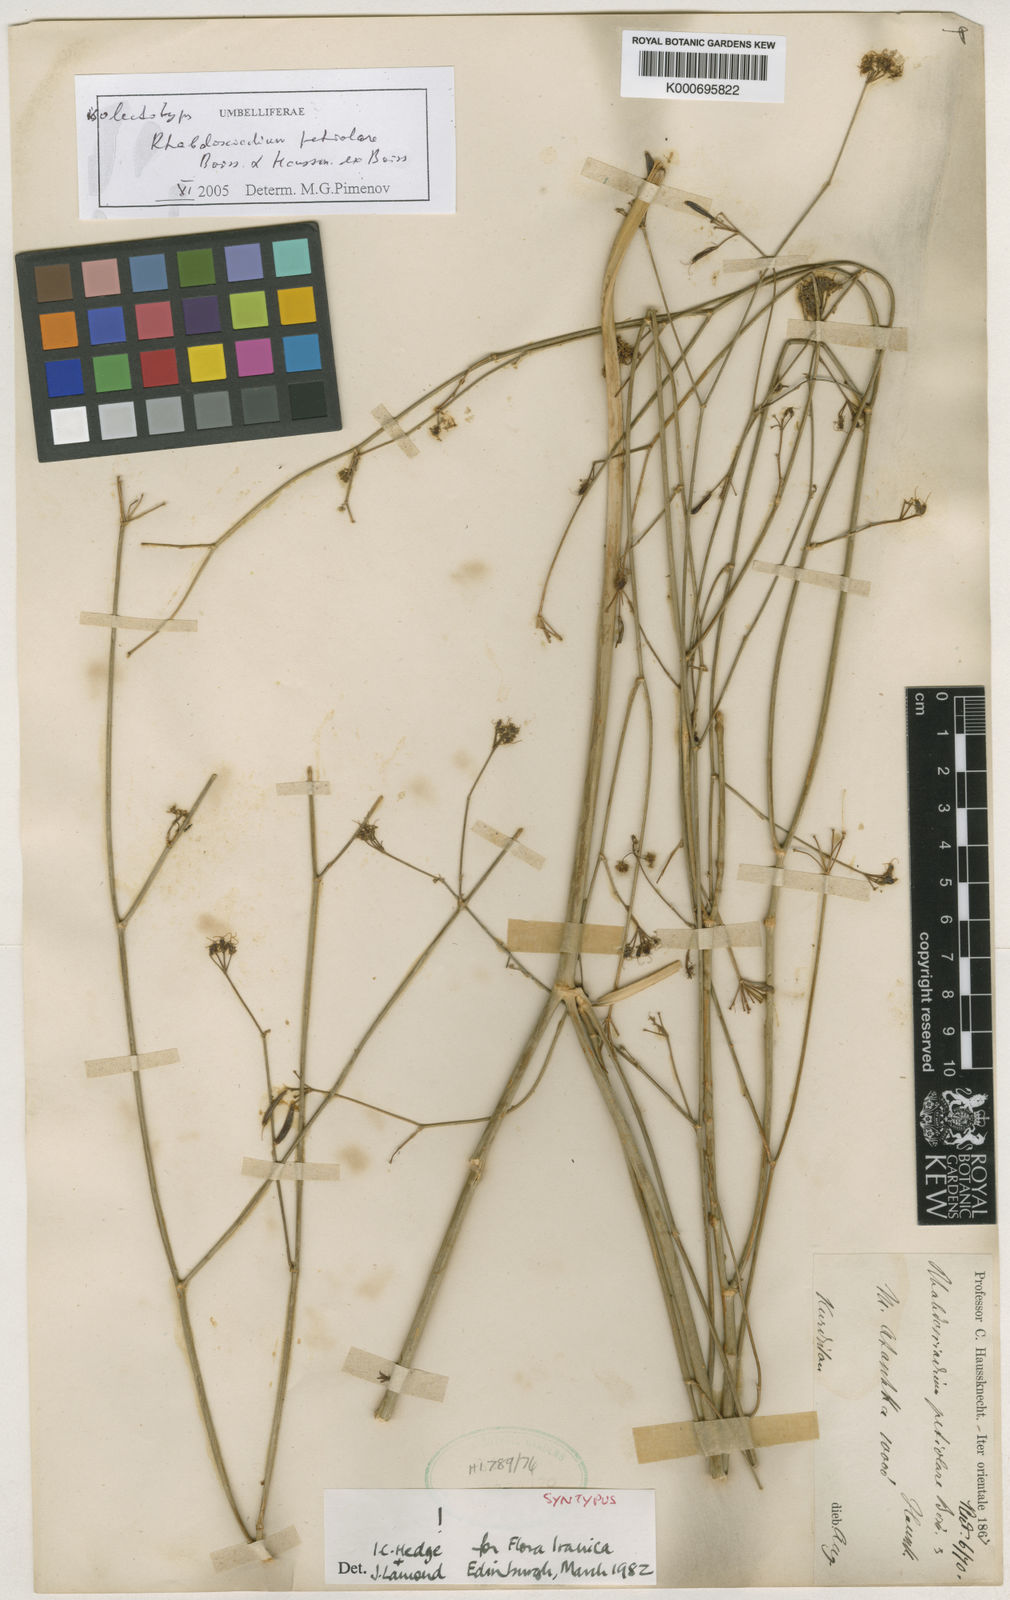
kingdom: Plantae
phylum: Tracheophyta
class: Magnoliopsida
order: Apiales
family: Apiaceae
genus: Rhabdosciadium
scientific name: Rhabdosciadium petiolare
